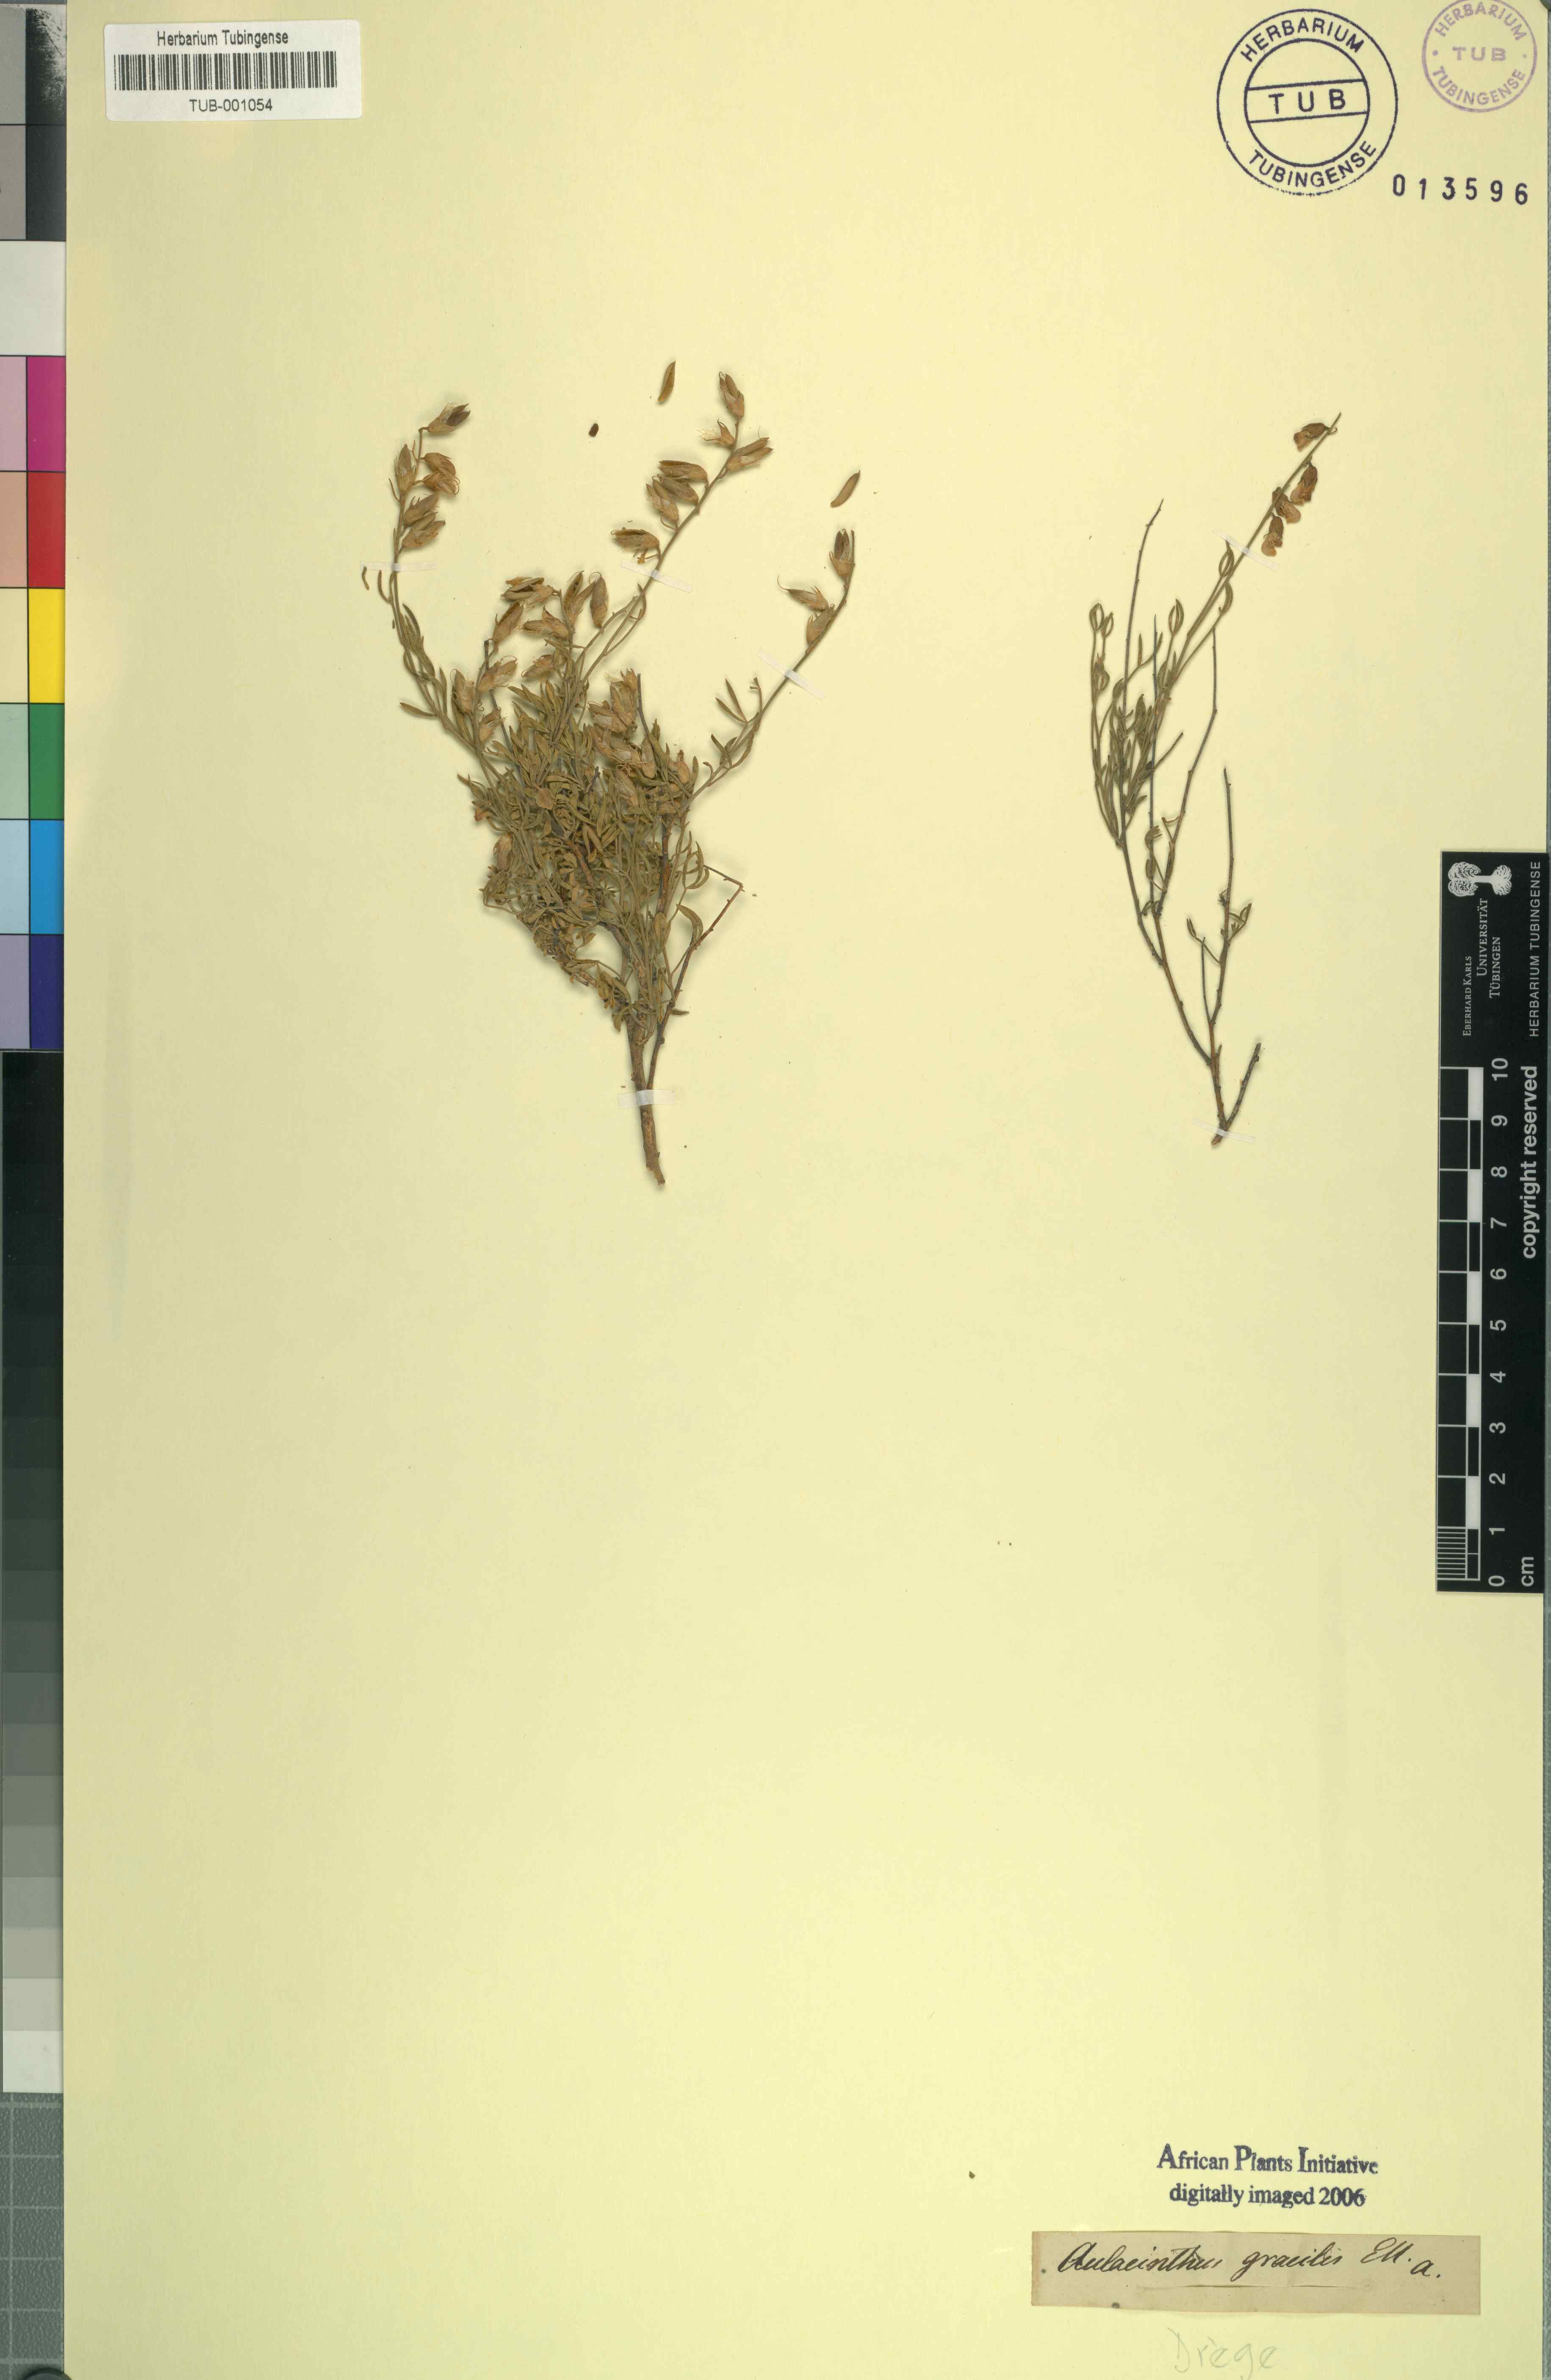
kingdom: Plantae
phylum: Tracheophyta
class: Magnoliopsida
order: Fabales
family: Fabaceae
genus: Lotononis
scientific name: Lotononis densa
